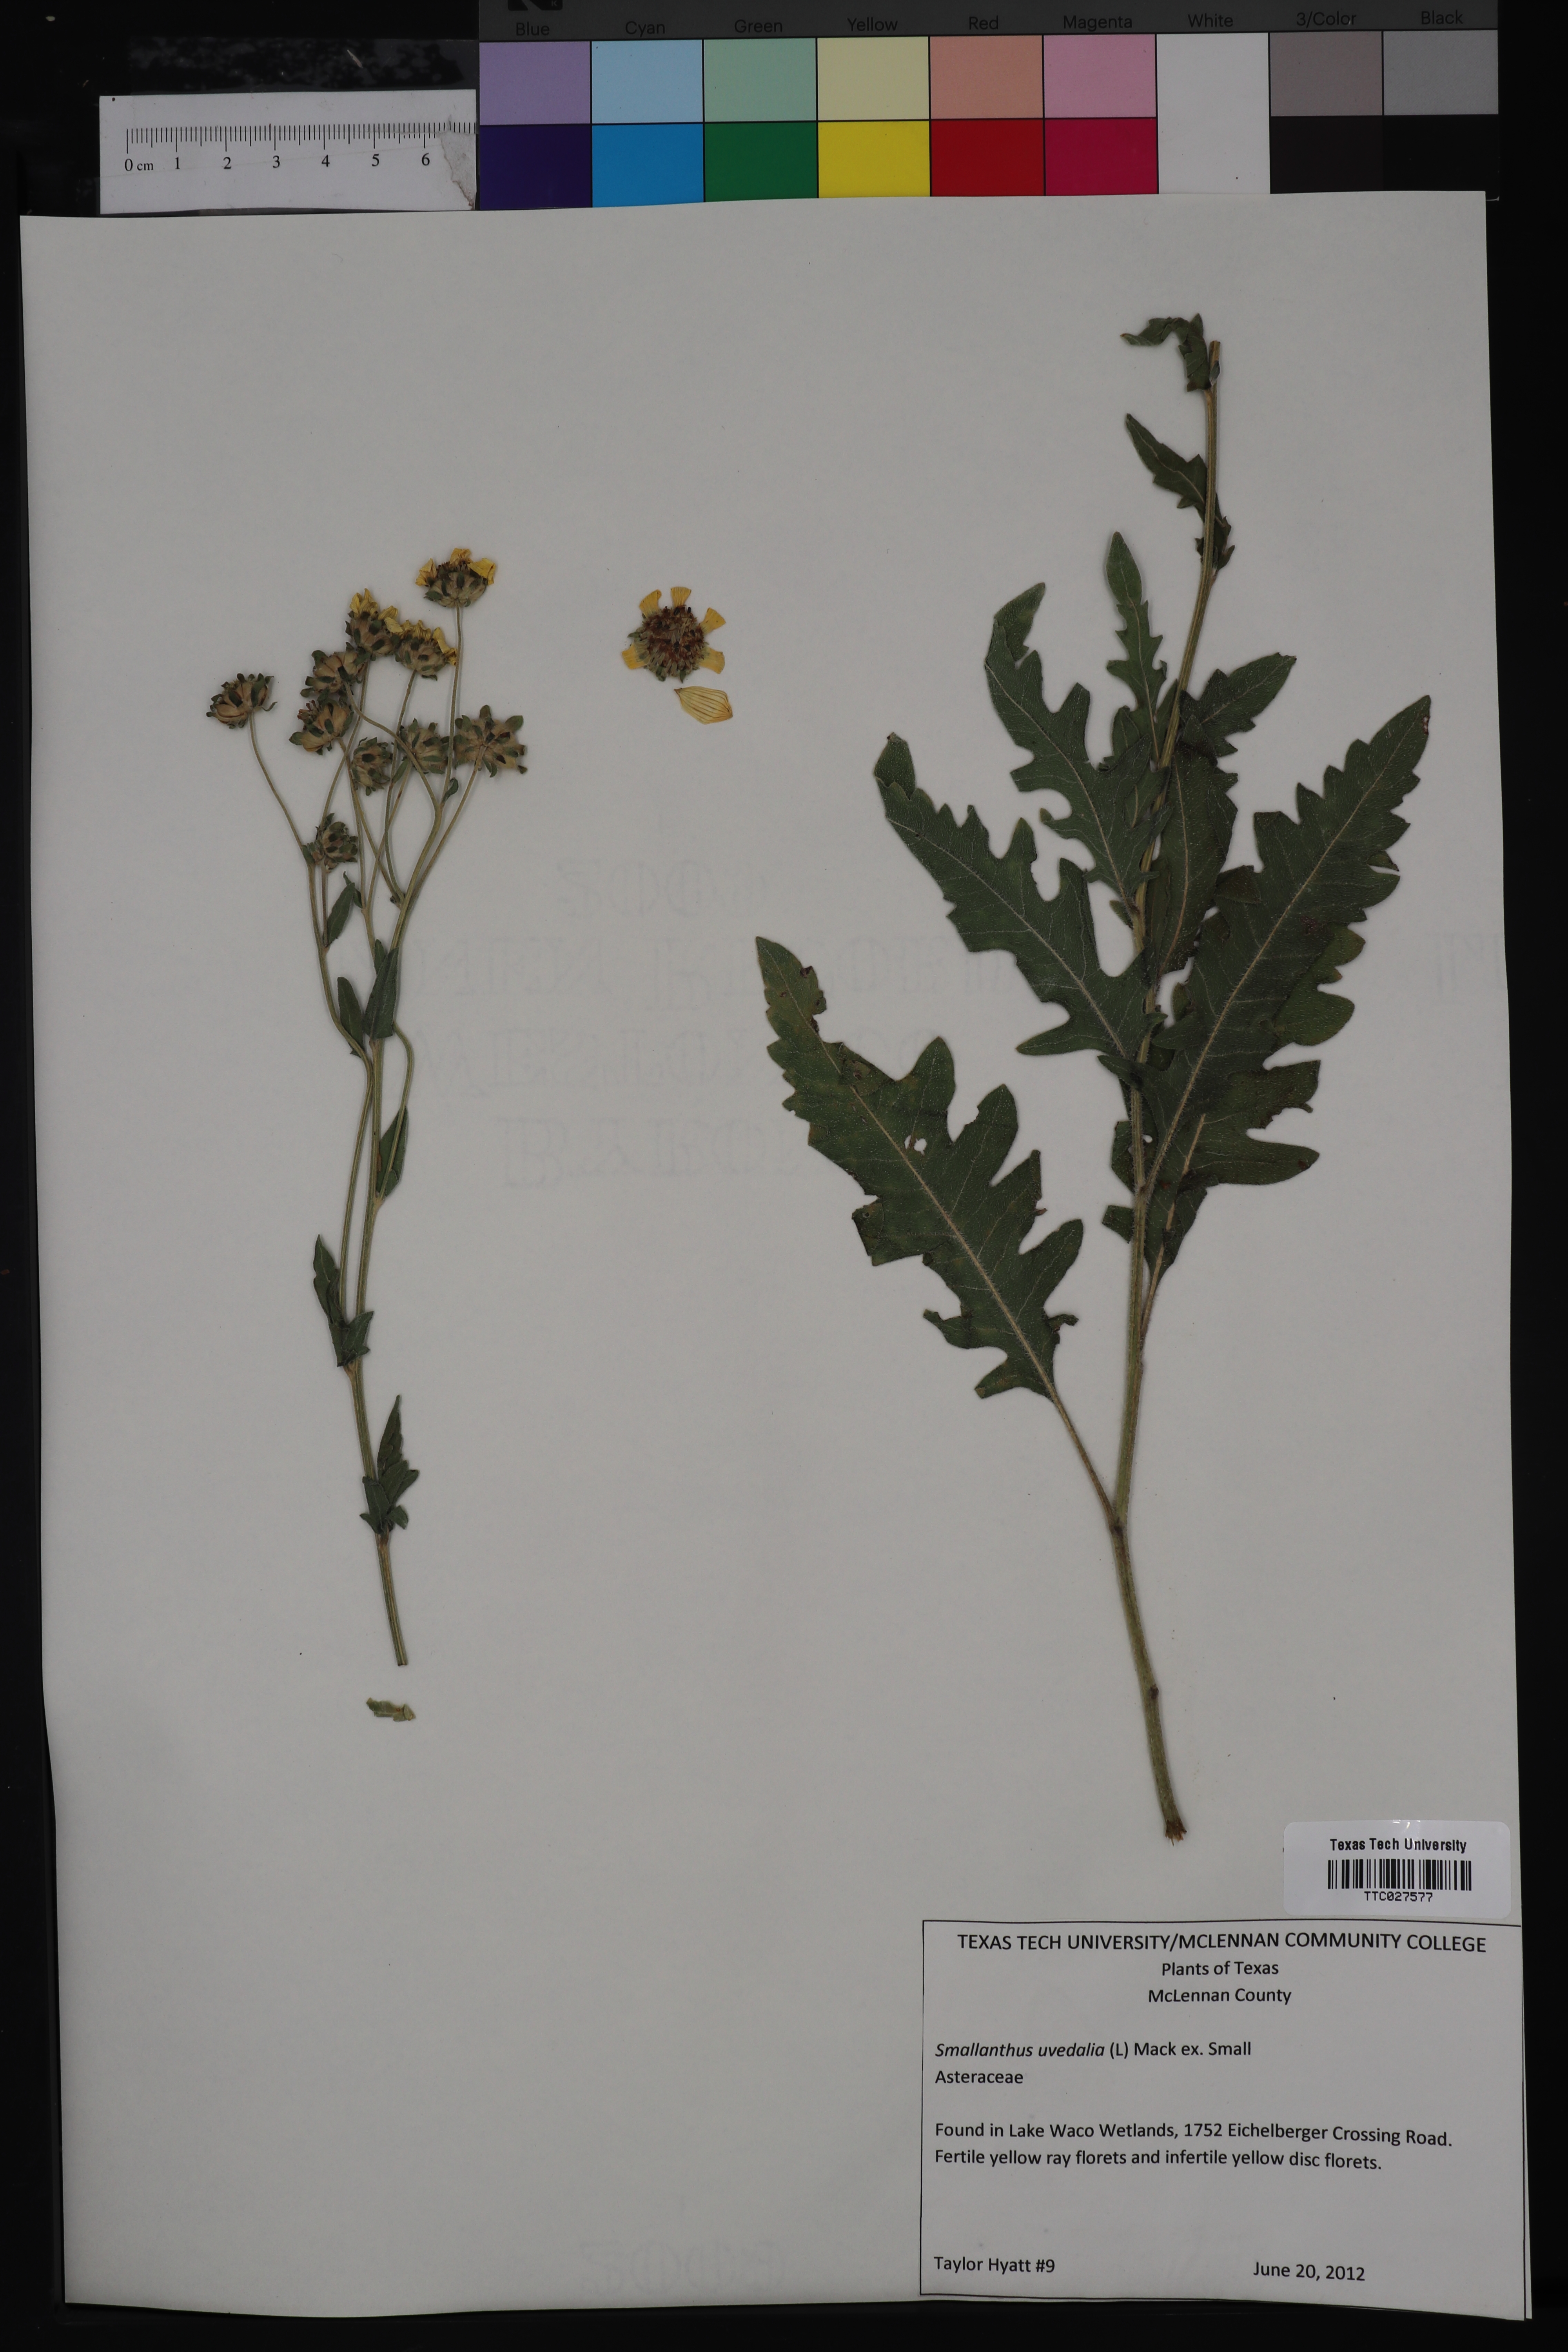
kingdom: Plantae
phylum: Tracheophyta
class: Magnoliopsida
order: Asterales
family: Asteraceae
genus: Smallanthus
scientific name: Smallanthus uvedalia
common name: Bear's-foot
